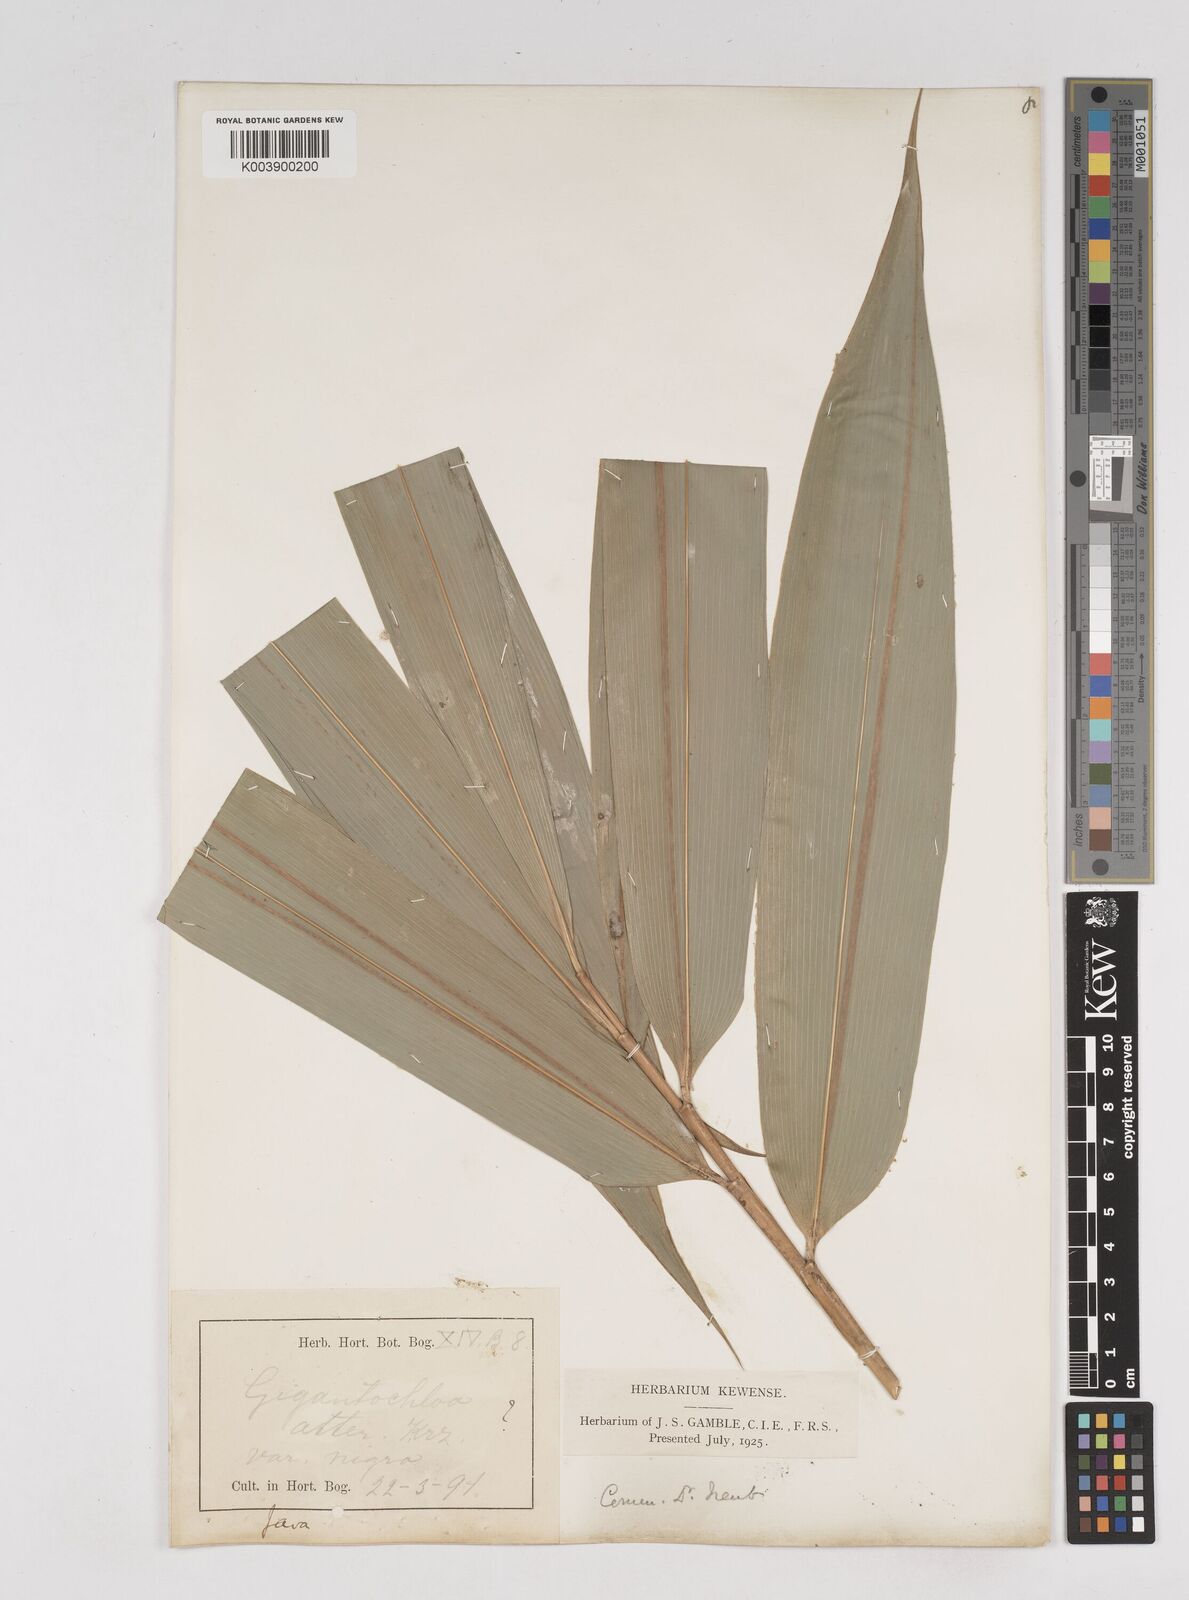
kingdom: Plantae
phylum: Tracheophyta
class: Liliopsida
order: Poales
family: Poaceae
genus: Gigantochloa
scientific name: Gigantochloa atter
